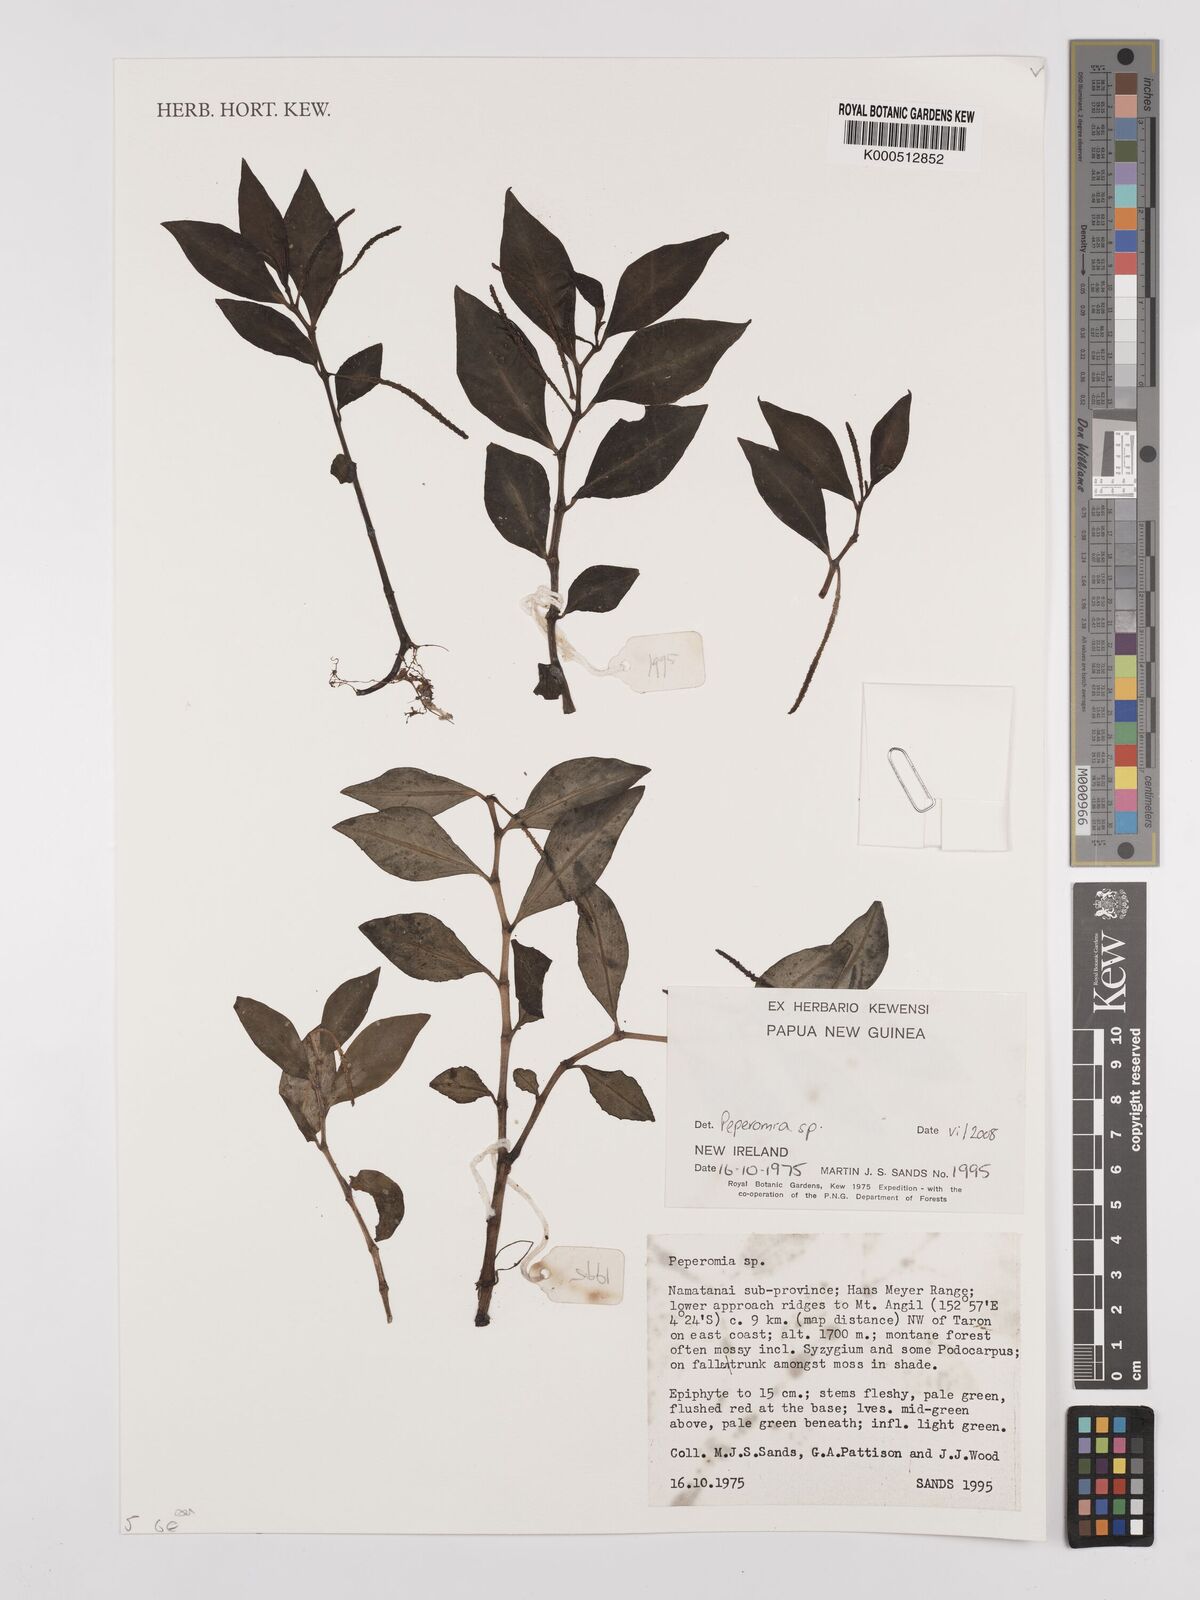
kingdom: Plantae
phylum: Tracheophyta
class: Magnoliopsida
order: Piperales
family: Piperaceae
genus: Peperomia
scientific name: Peperomia
